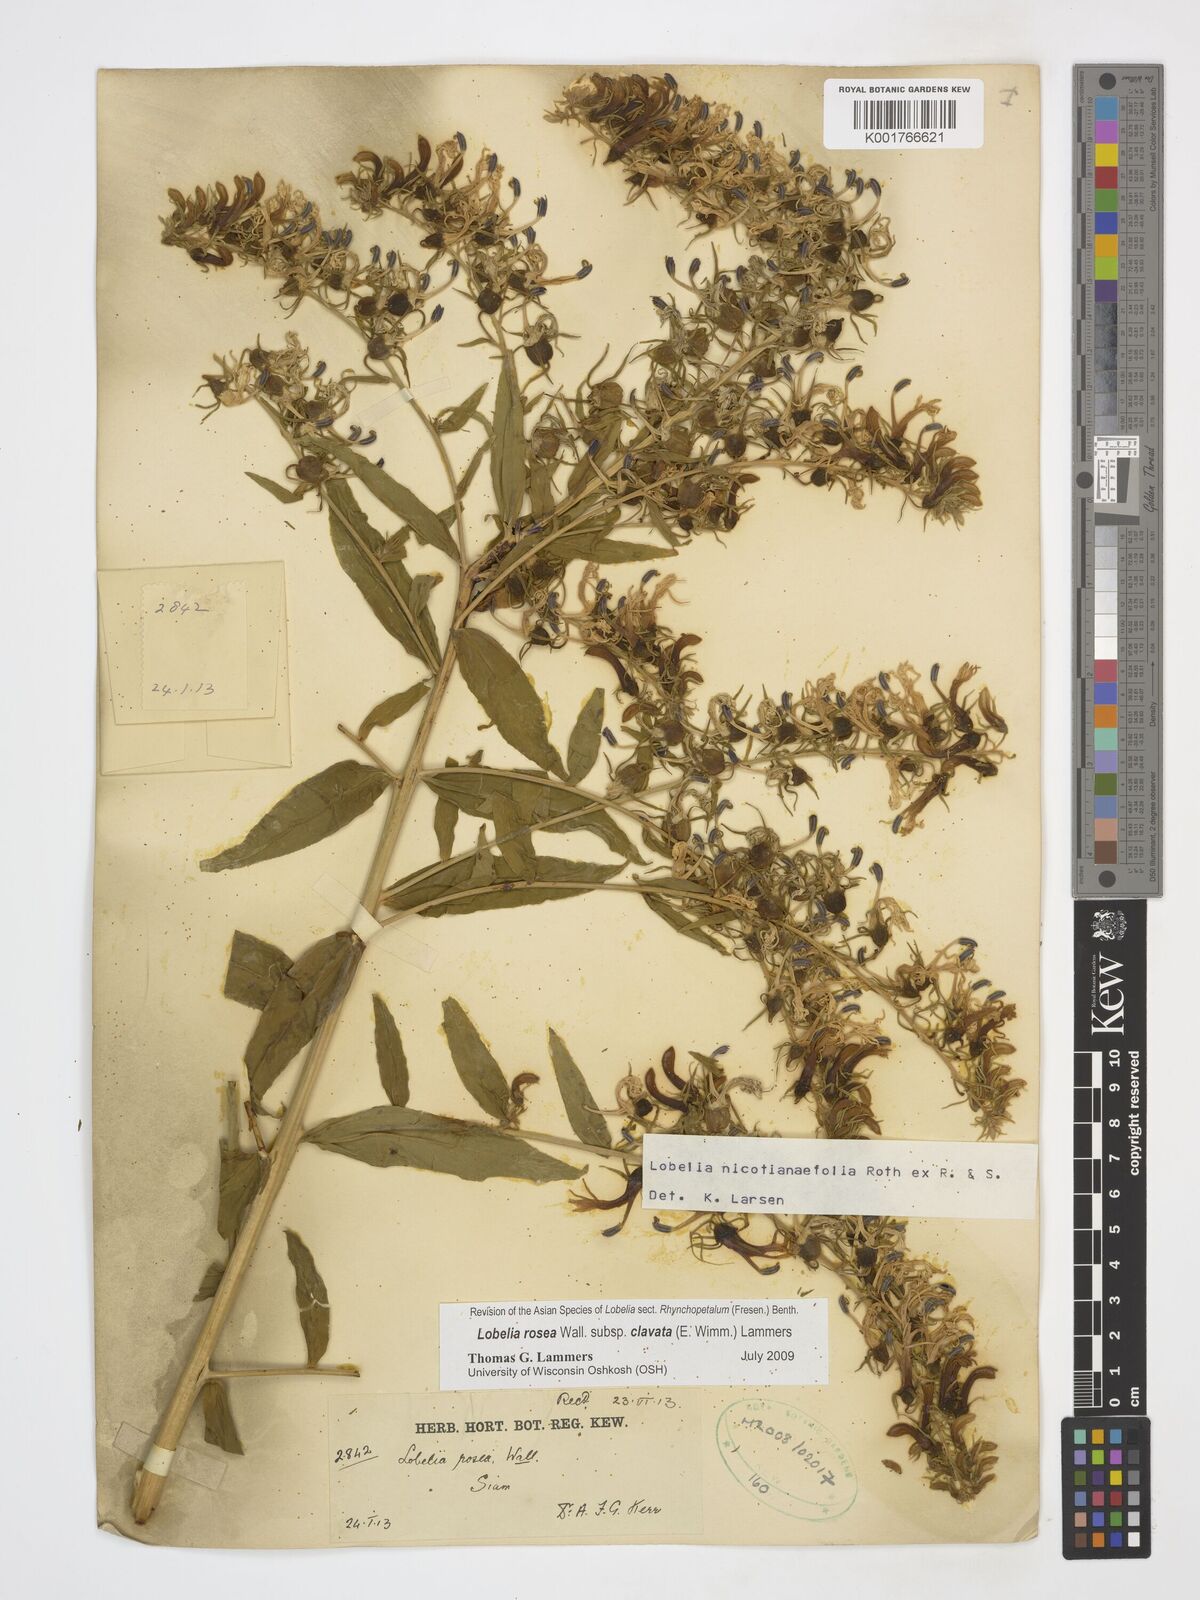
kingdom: Plantae
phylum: Tracheophyta
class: Magnoliopsida
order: Asterales
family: Campanulaceae
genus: Lobelia
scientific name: Lobelia rosea
